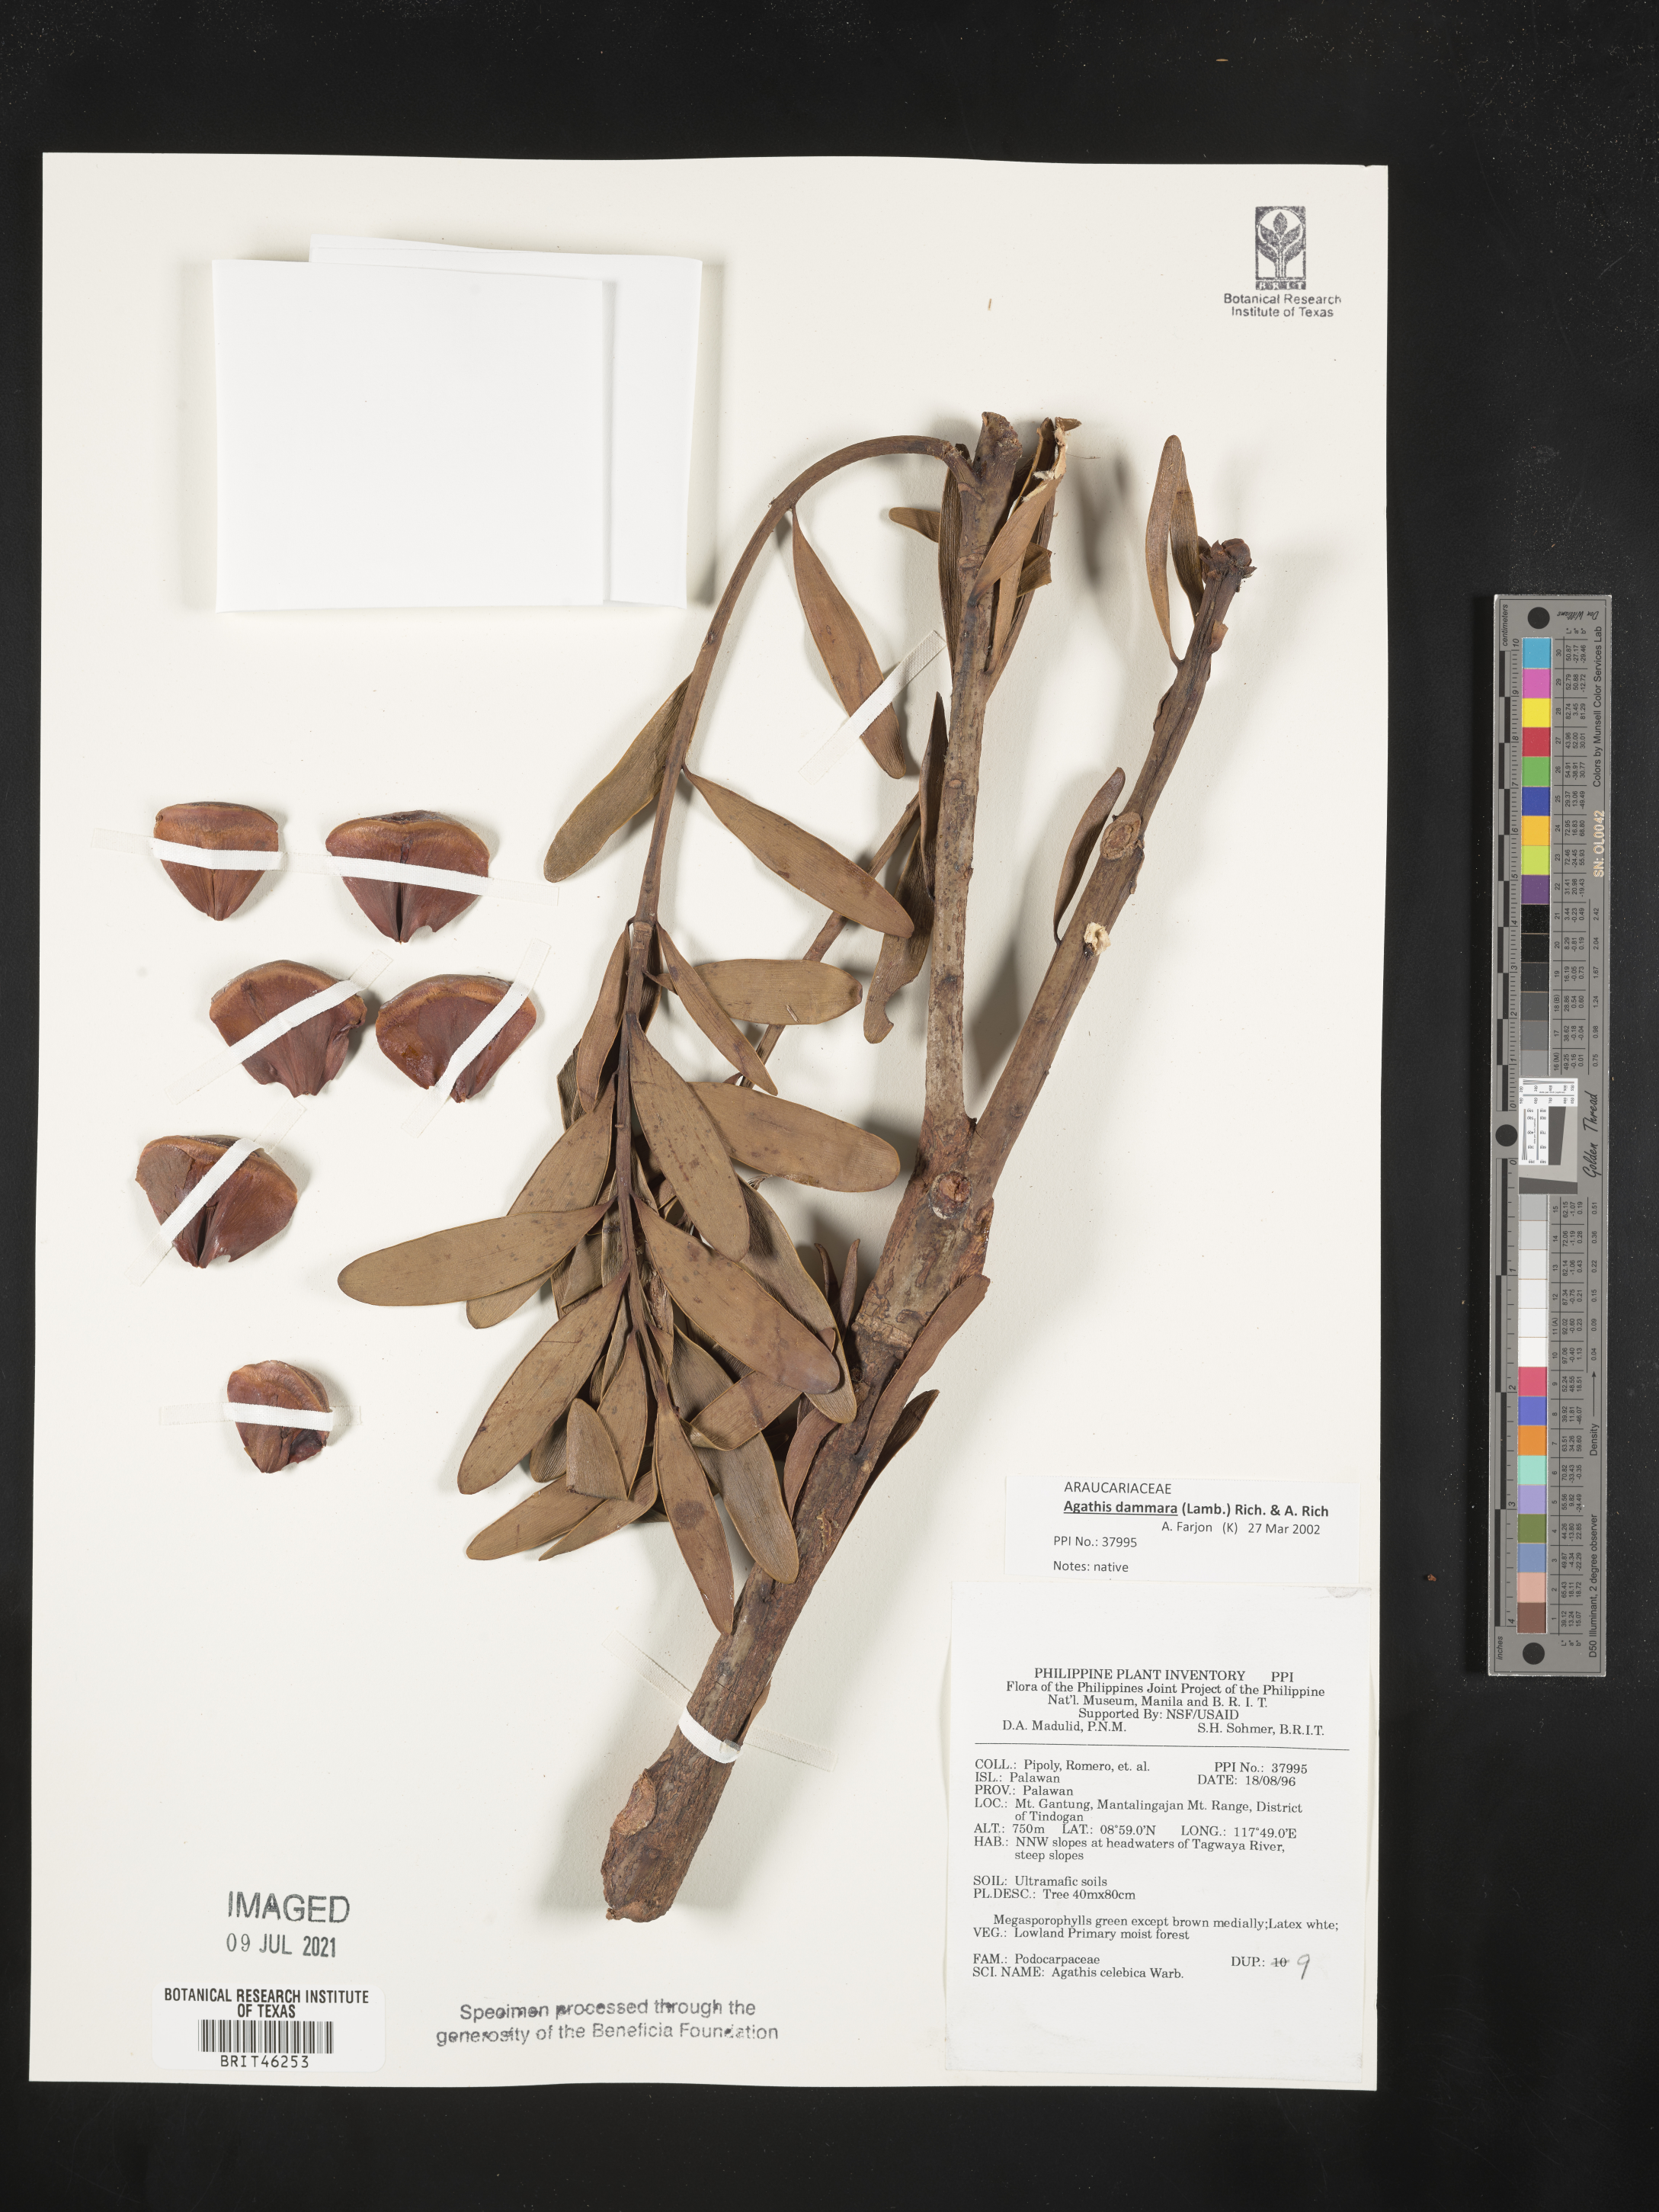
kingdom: Plantae
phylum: Tracheophyta
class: Pinopsida
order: Pinales
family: Araucariaceae
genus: Agathis
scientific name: Agathis dammara
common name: Amboina pitch tree
